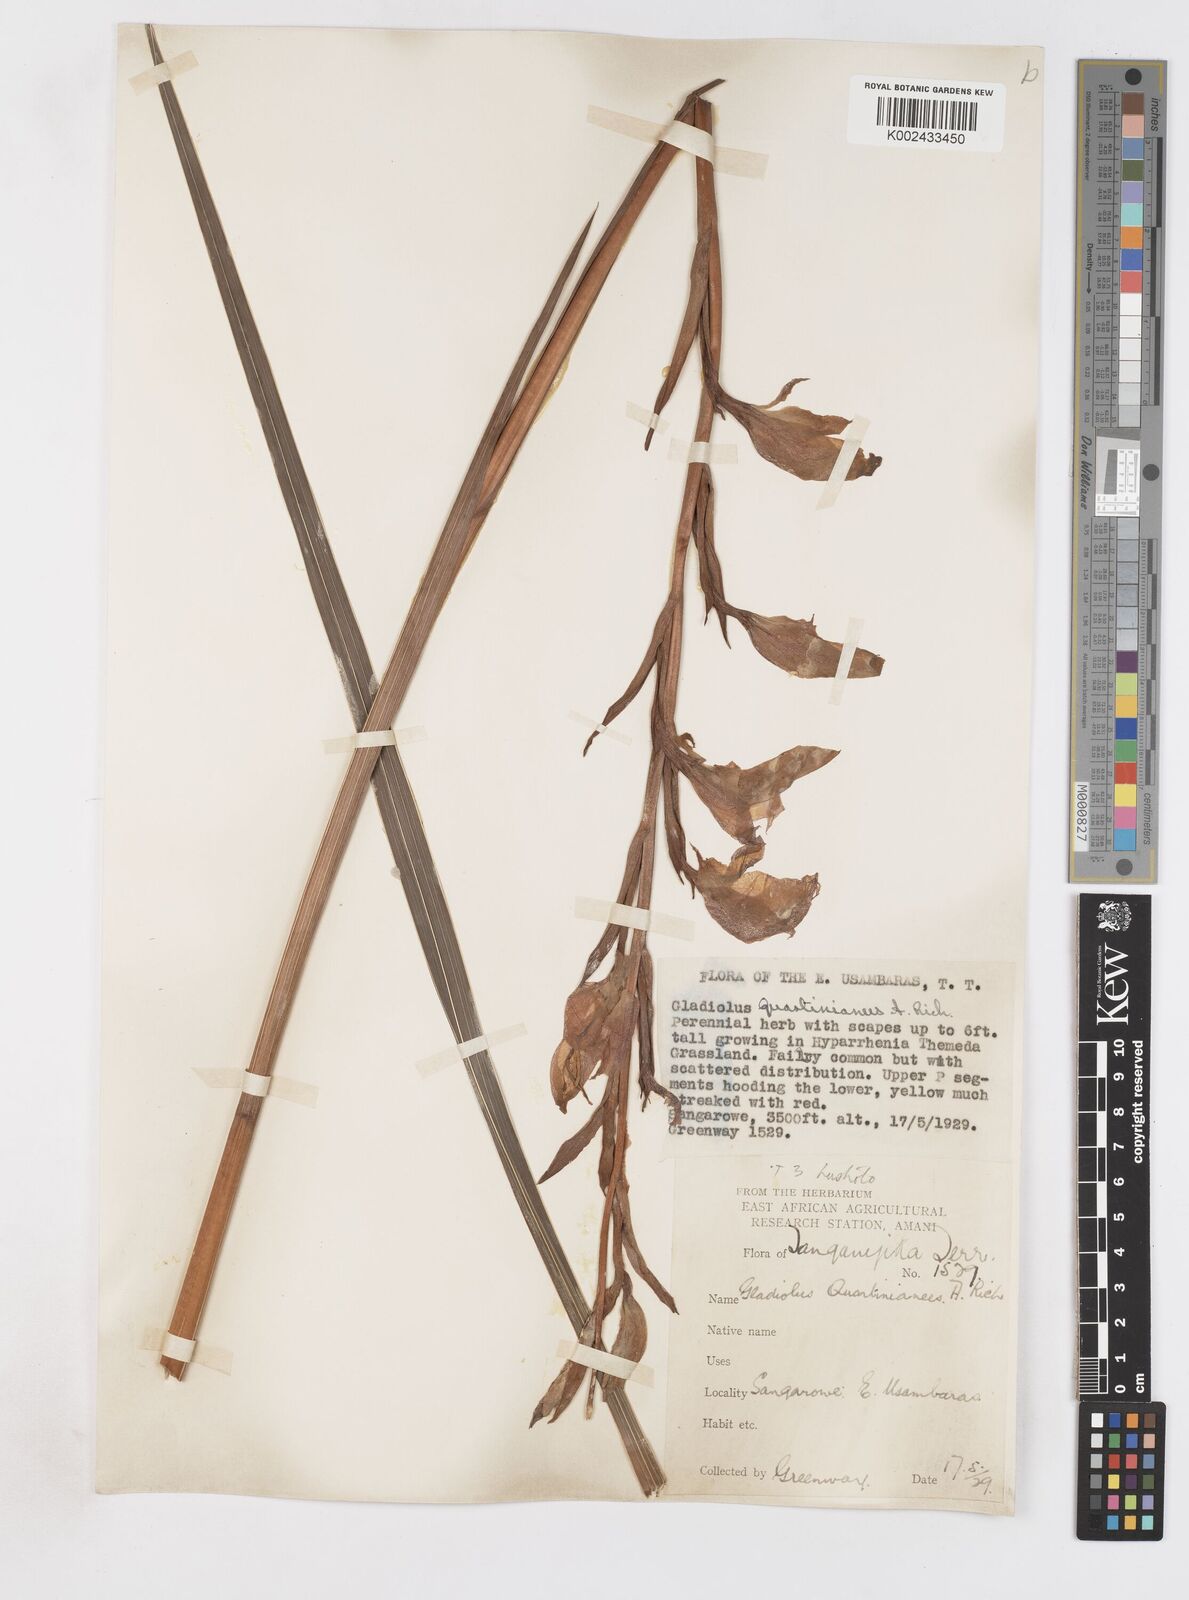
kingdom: Plantae
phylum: Tracheophyta
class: Liliopsida
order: Asparagales
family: Iridaceae
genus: Gladiolus
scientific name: Gladiolus dalenii
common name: Cornflag
